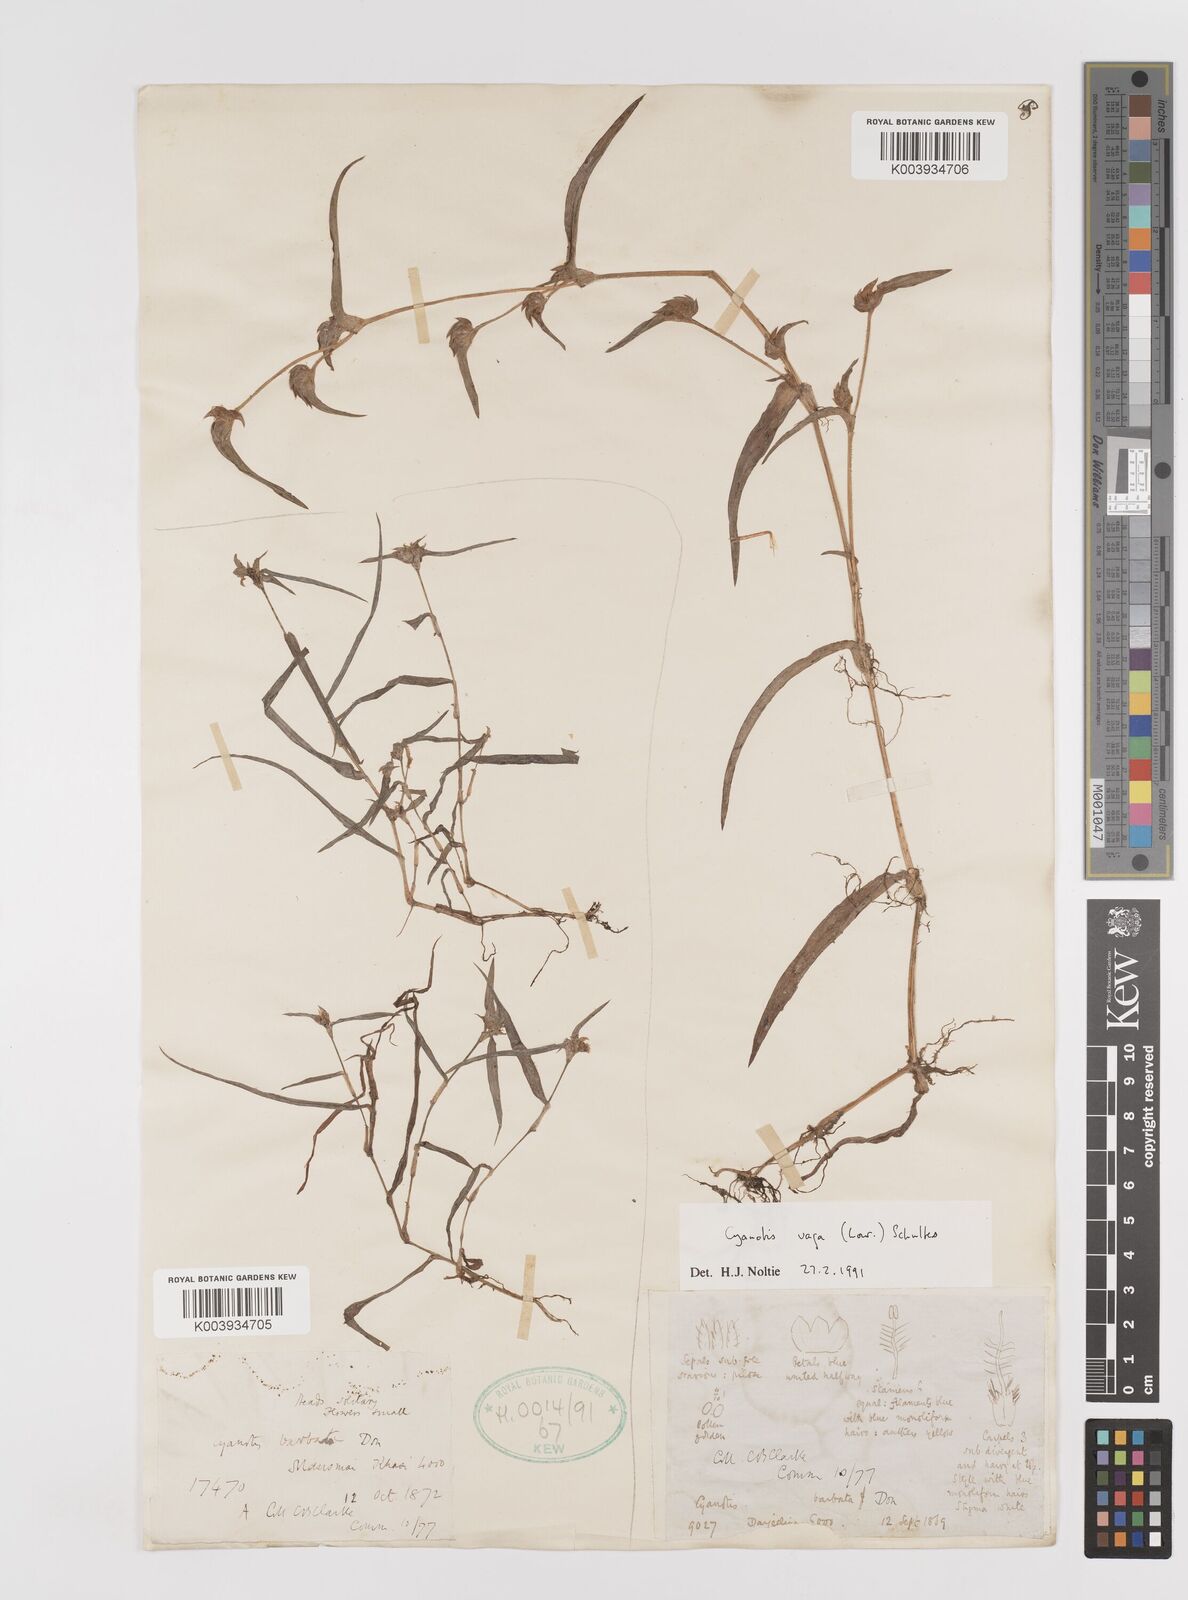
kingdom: Plantae
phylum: Tracheophyta
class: Liliopsida
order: Commelinales
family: Commelinaceae
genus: Cyanotis
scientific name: Cyanotis vaga
